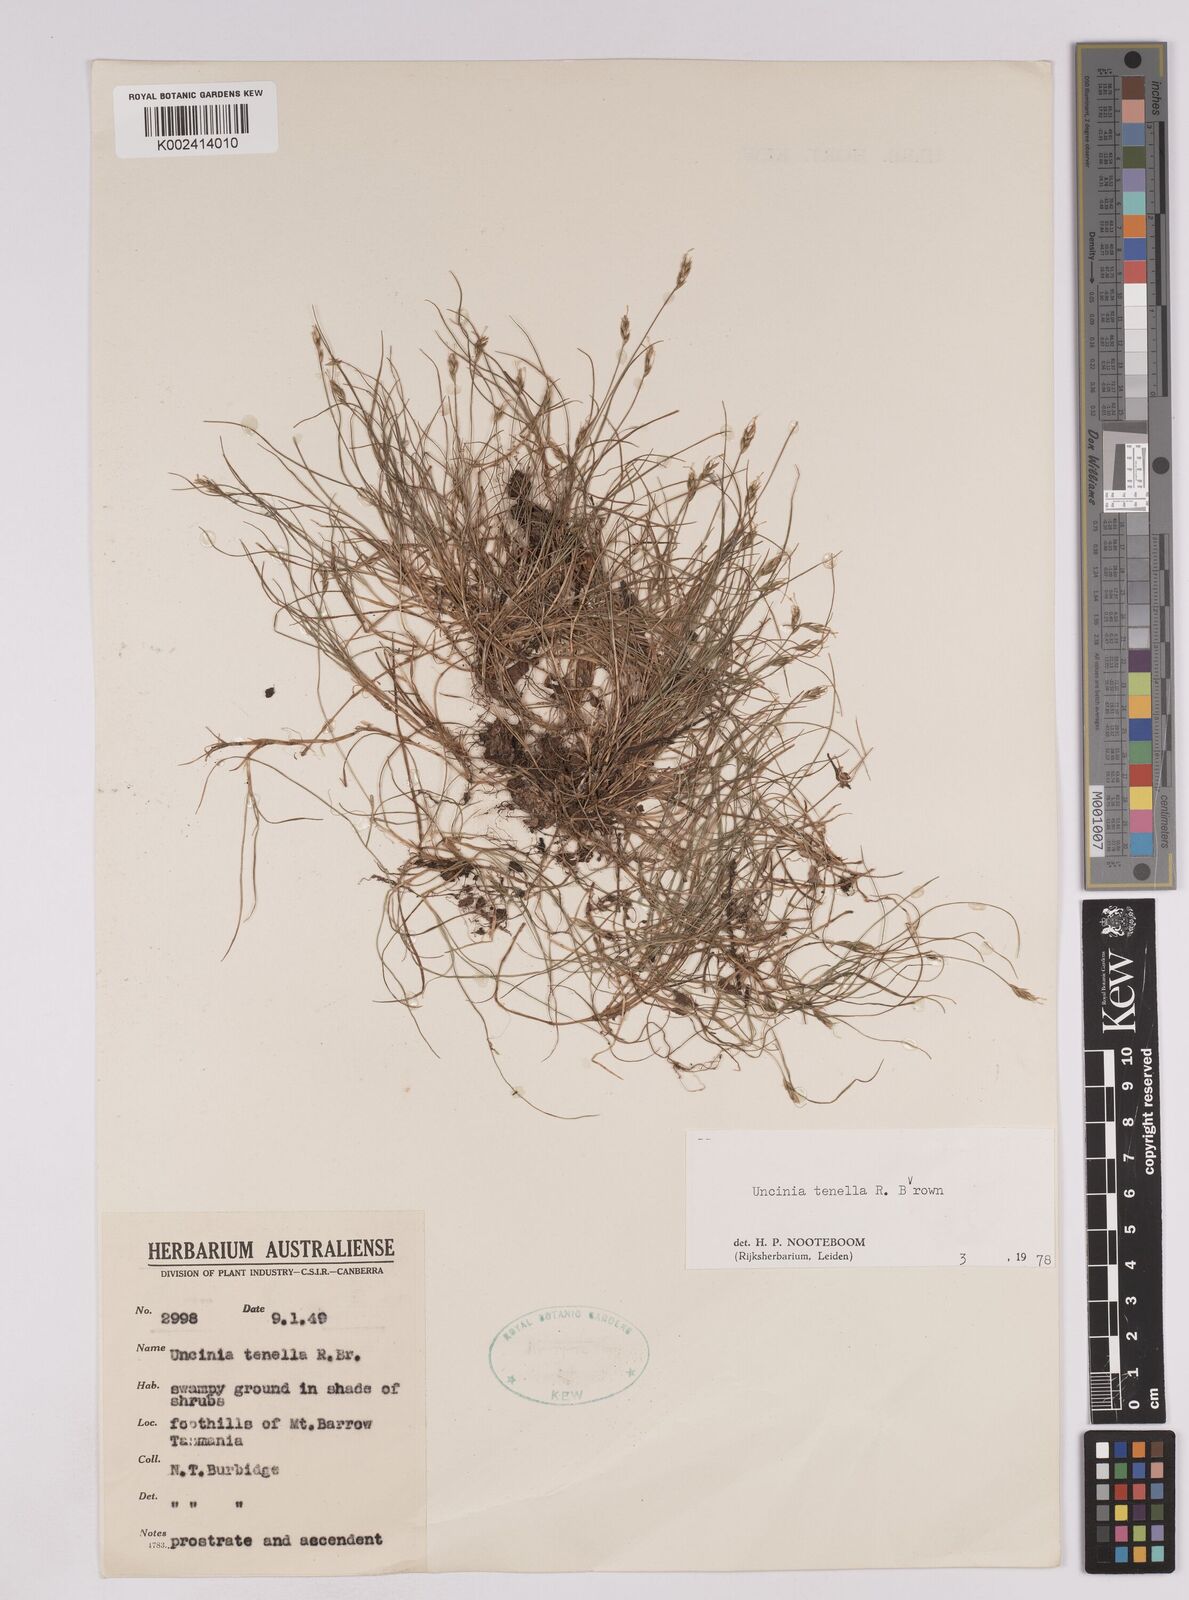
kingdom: Plantae
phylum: Tracheophyta
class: Liliopsida
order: Poales
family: Cyperaceae
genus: Carex
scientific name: Carex austrotenella
